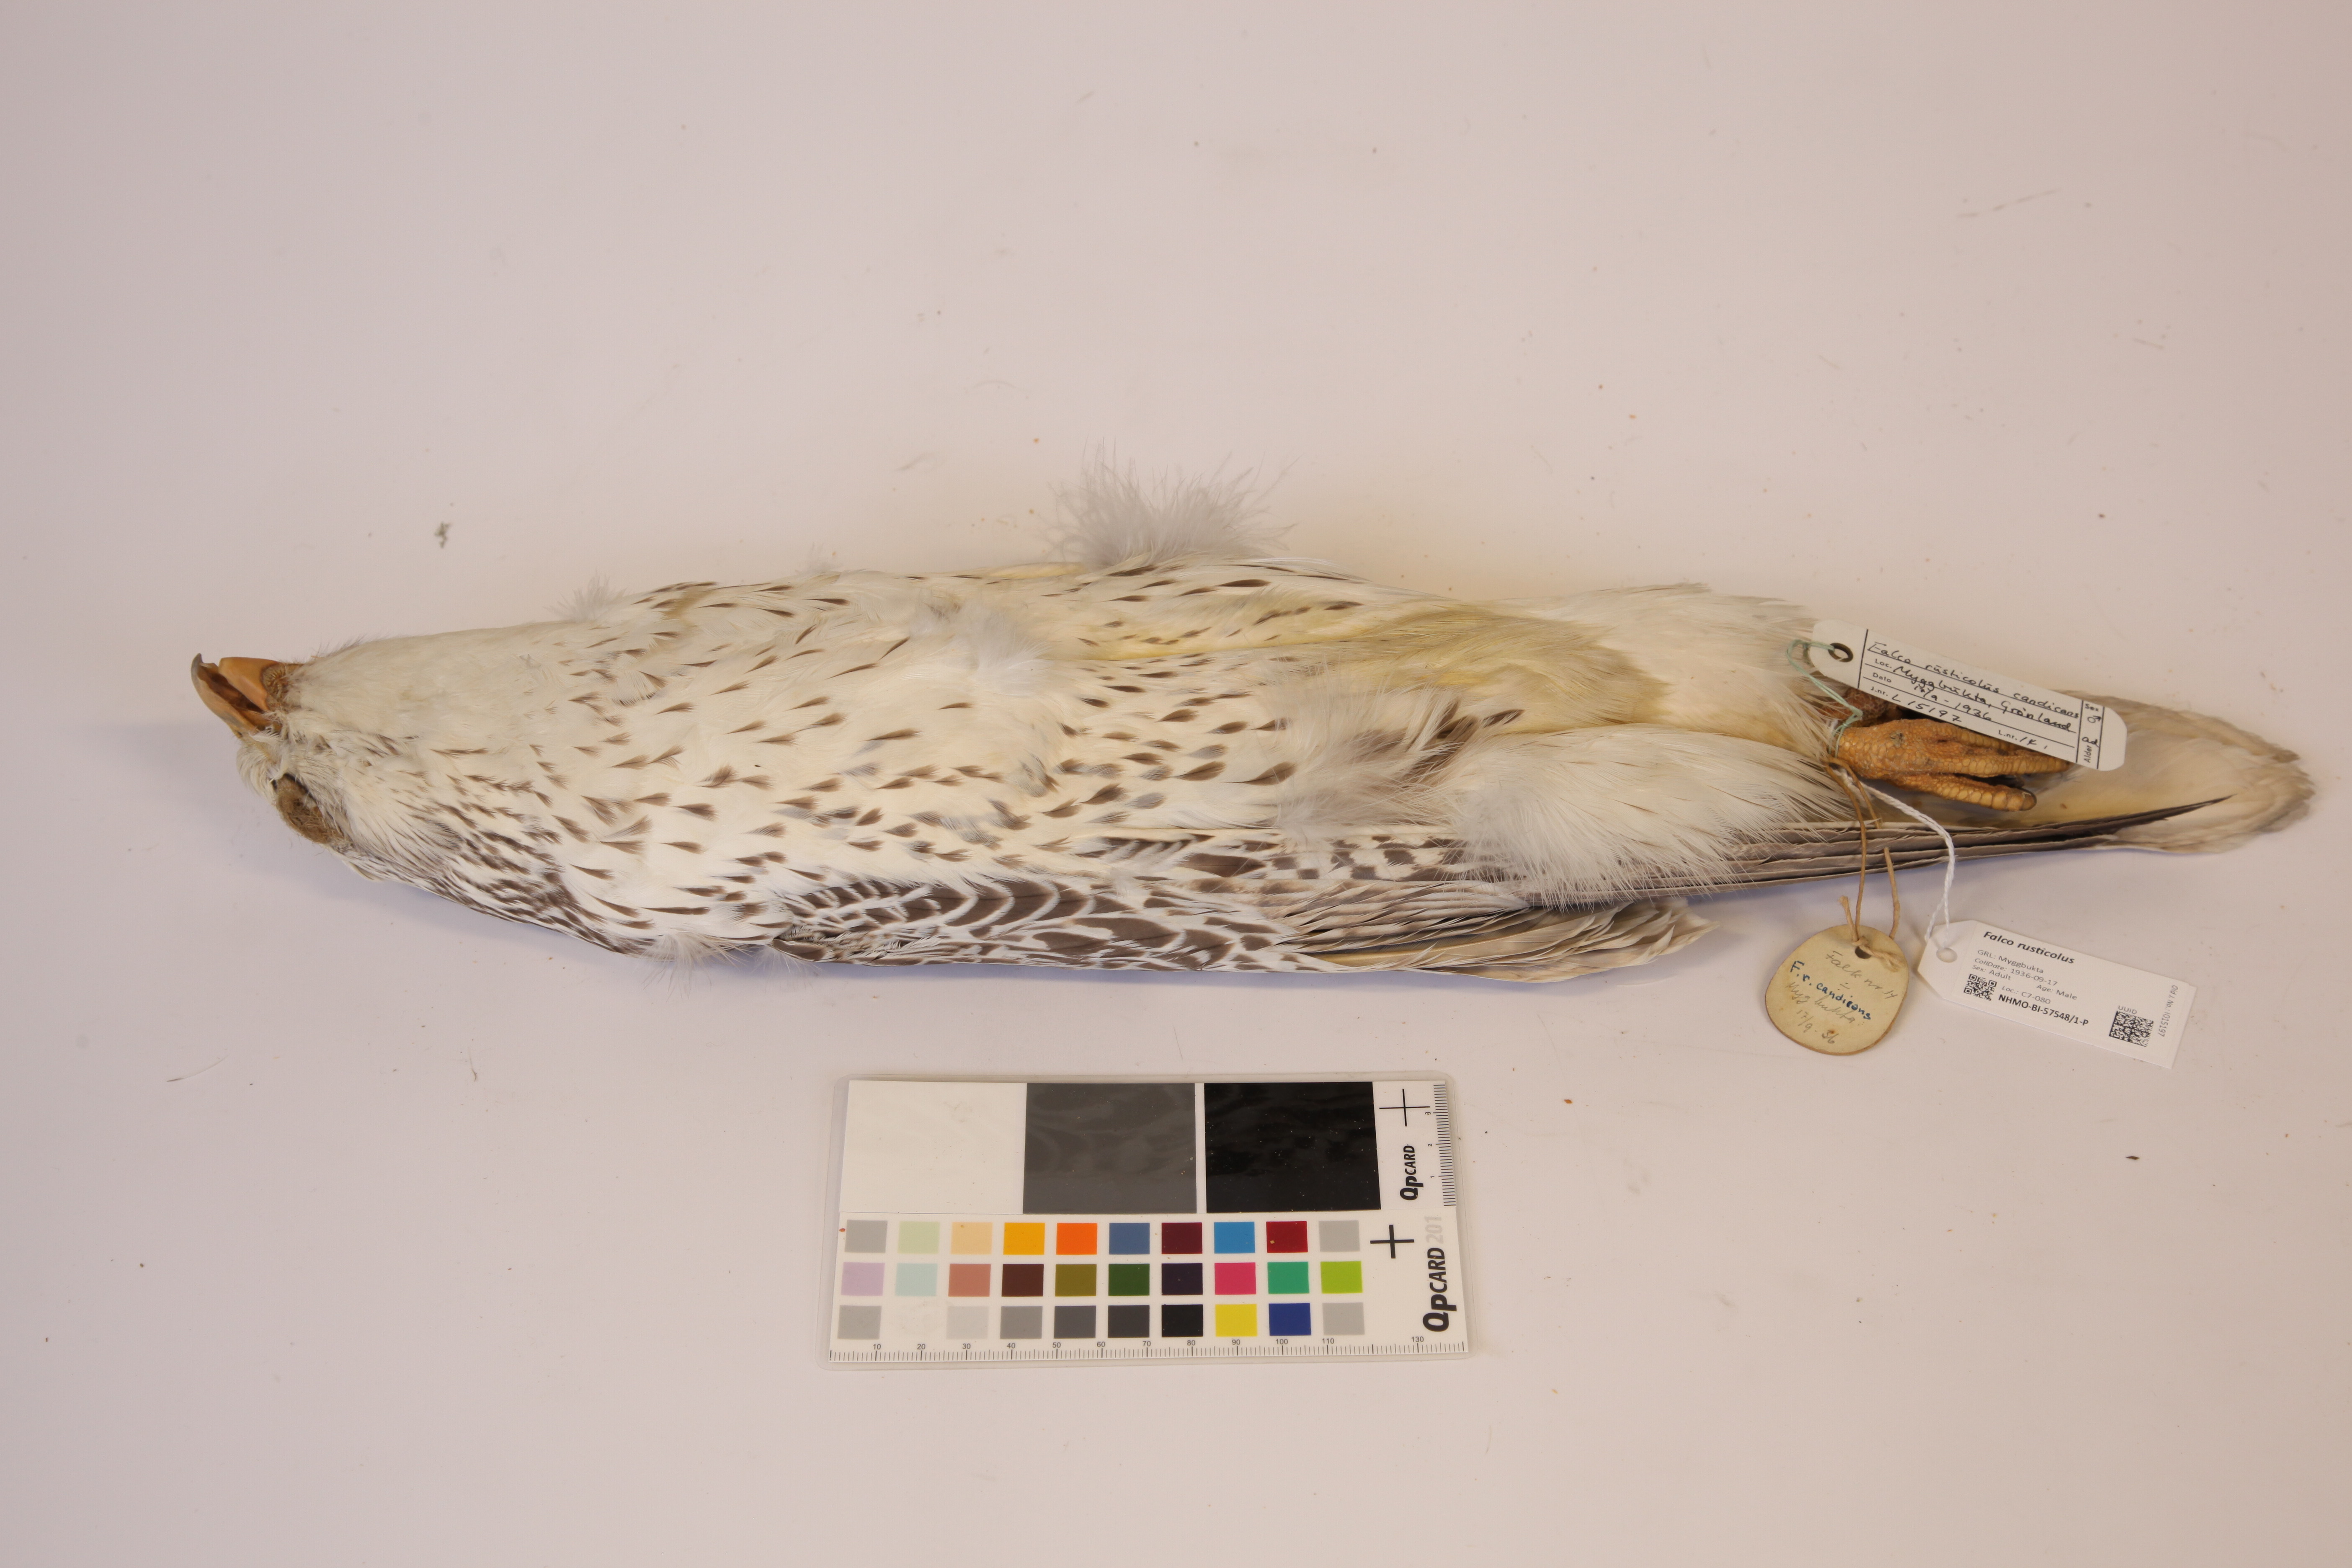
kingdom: Animalia
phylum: Chordata
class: Aves
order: Falconiformes
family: Falconidae
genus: Falco
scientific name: Falco rusticolus
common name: Gyrfalcon
